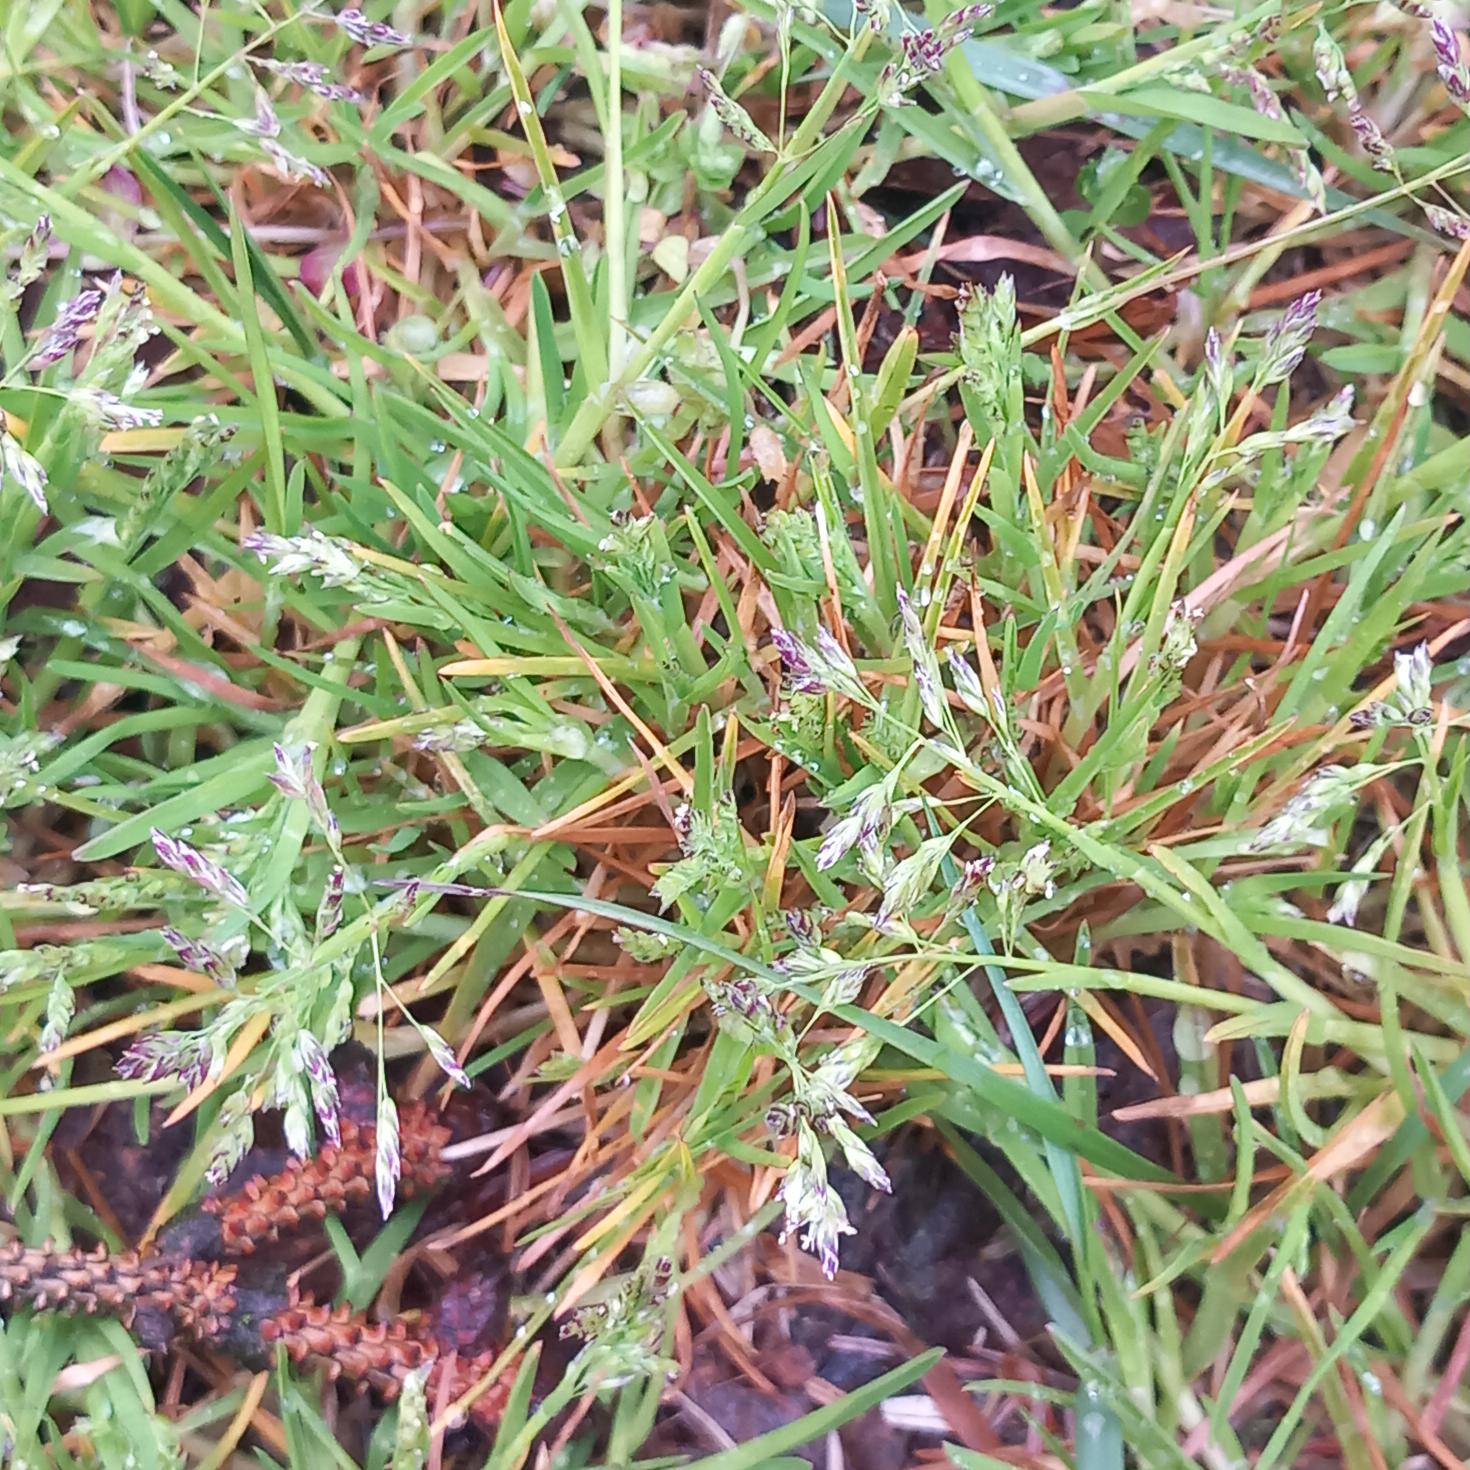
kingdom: Plantae
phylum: Tracheophyta
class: Liliopsida
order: Poales
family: Poaceae
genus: Poa
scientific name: Poa annua
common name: Enårig rapgræs
